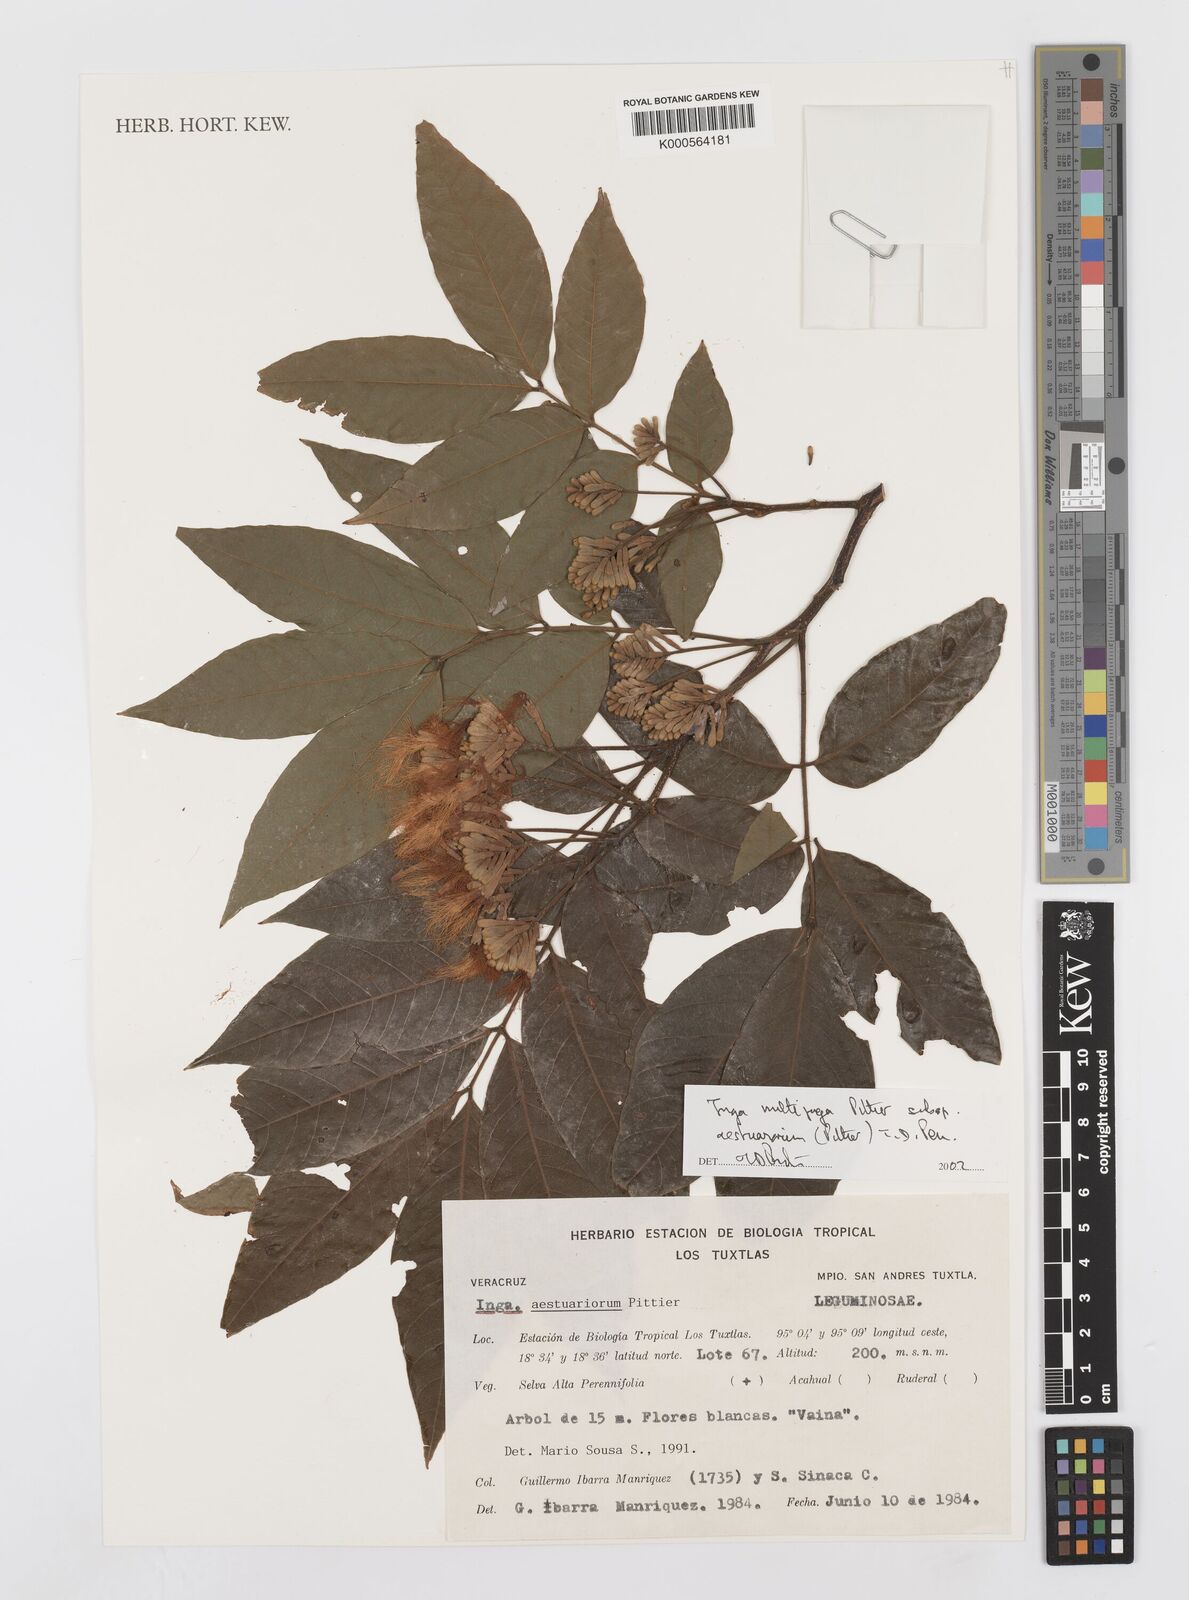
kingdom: Plantae
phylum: Tracheophyta
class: Magnoliopsida
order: Fabales
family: Fabaceae
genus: Inga
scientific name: Inga multijuga
